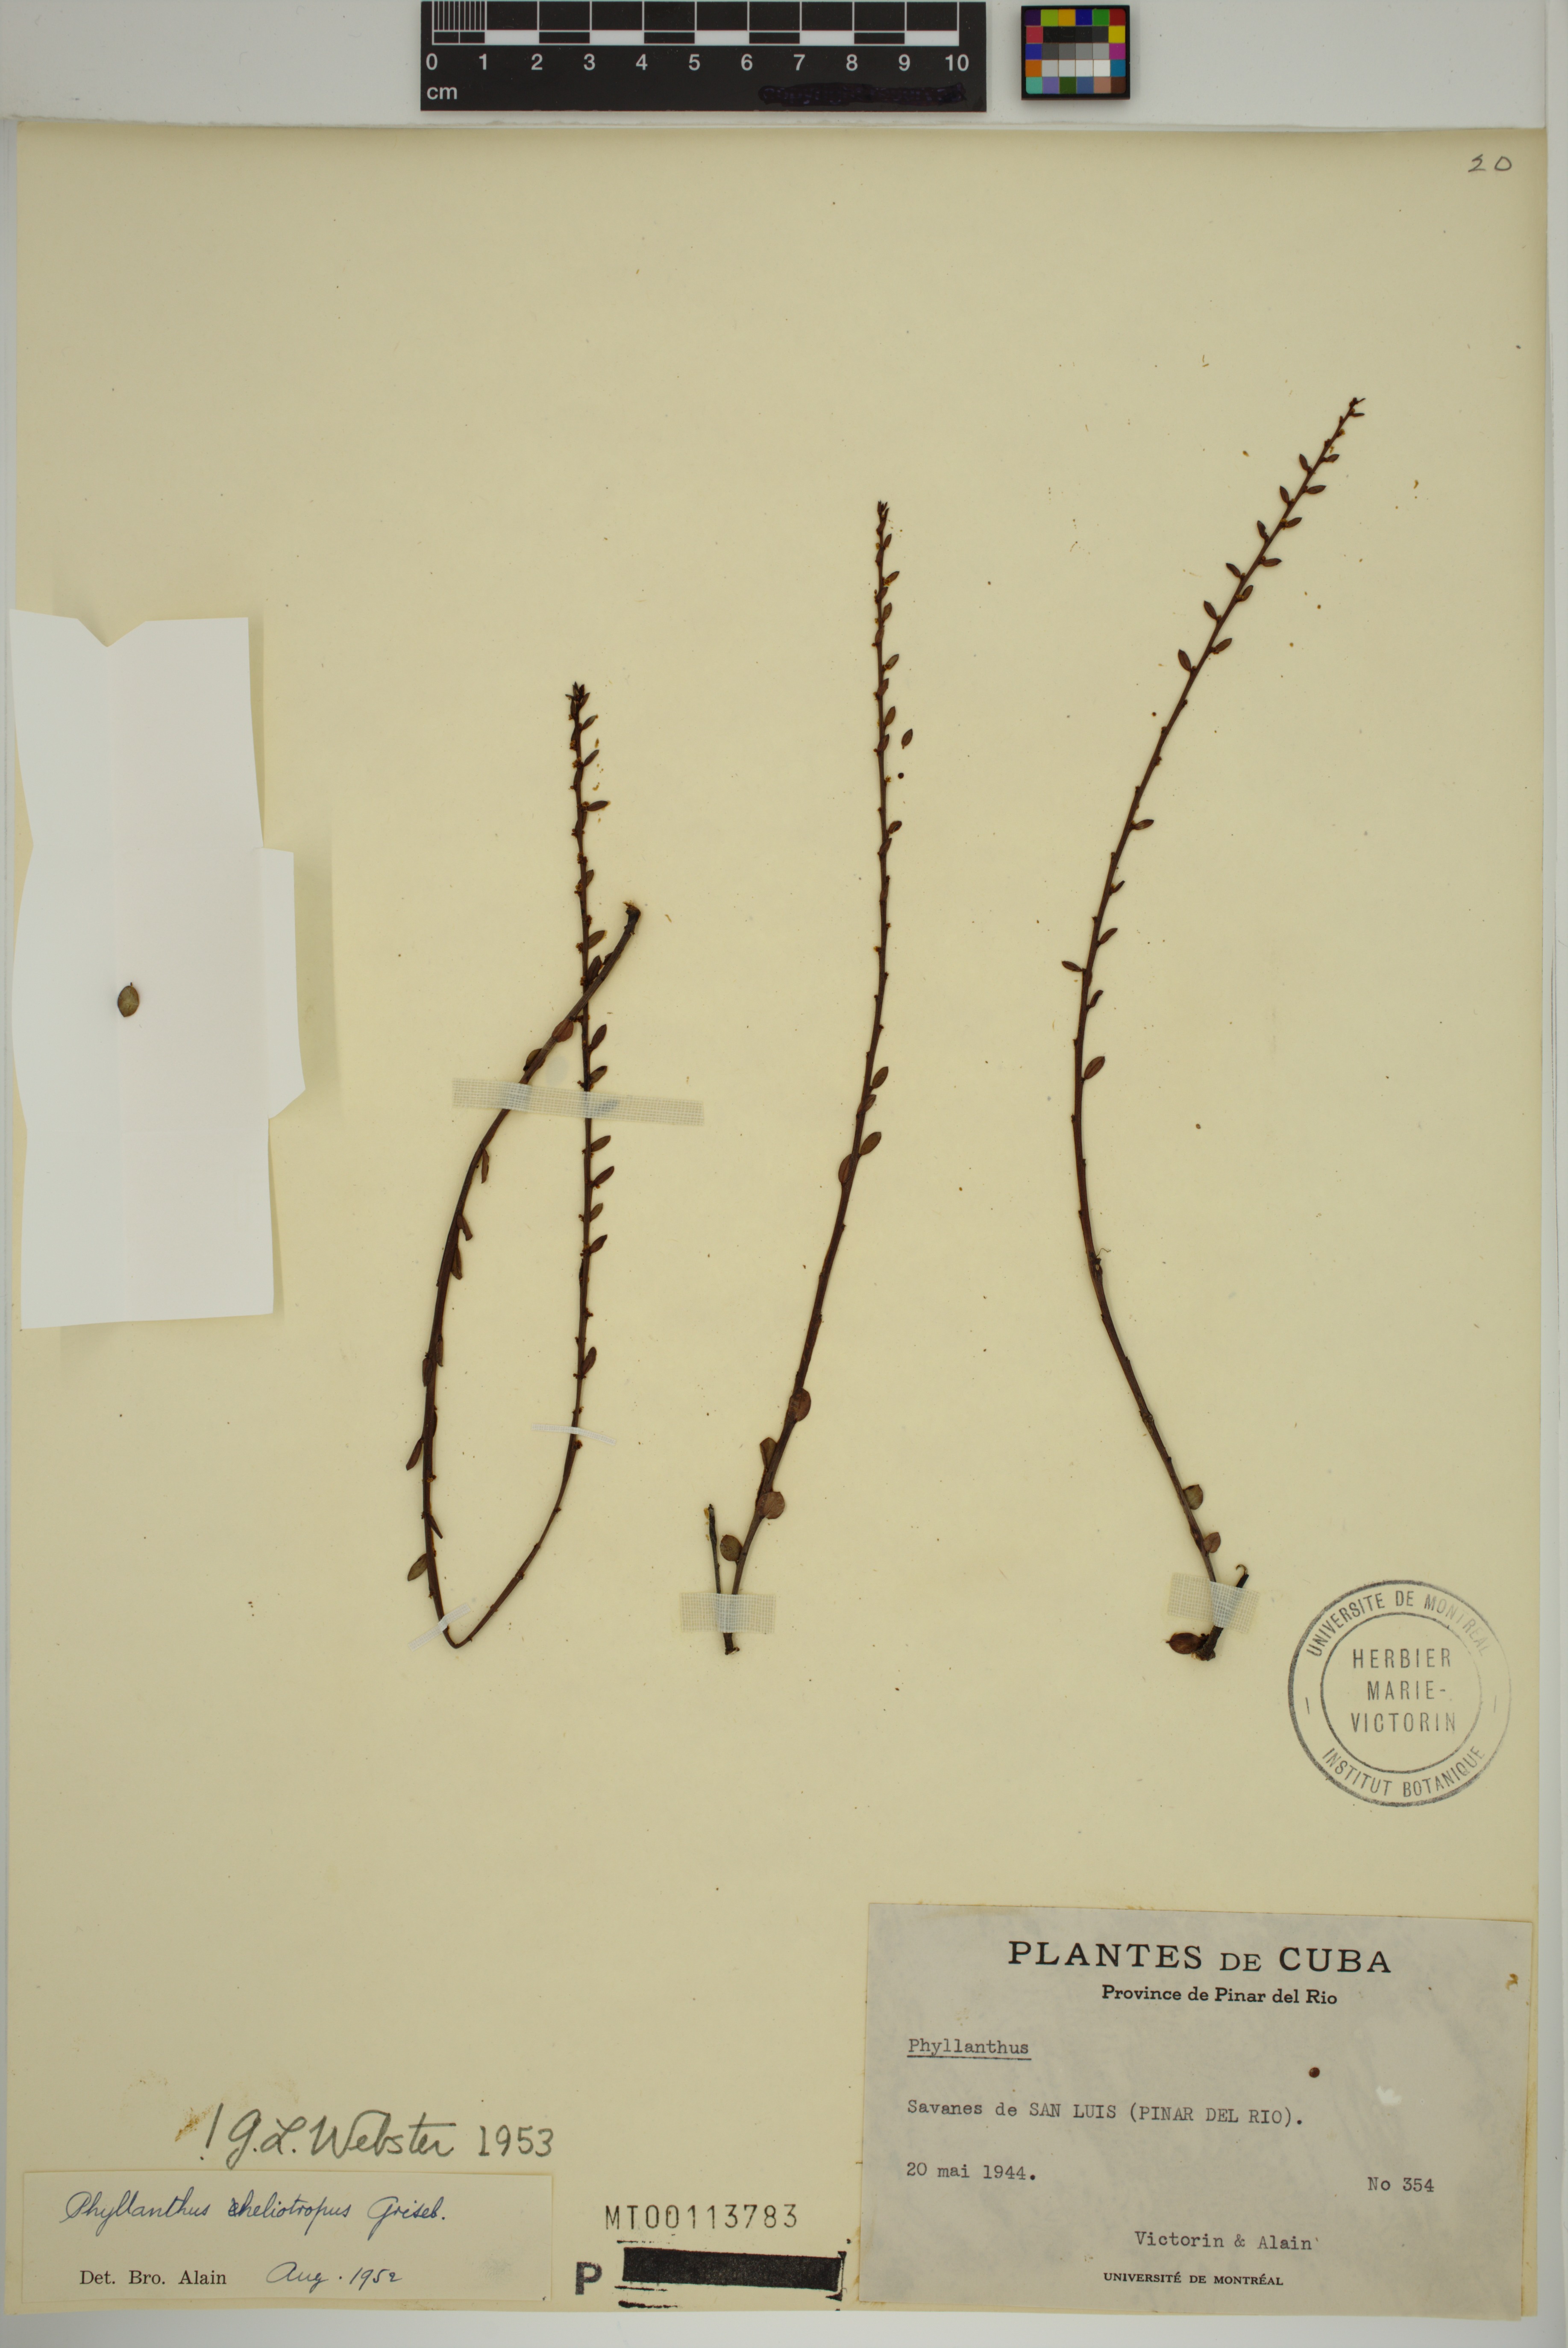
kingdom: Plantae
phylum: Tracheophyta
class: Magnoliopsida
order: Malpighiales
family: Phyllanthaceae
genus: Phyllanthus
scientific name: Phyllanthus heliotropus
